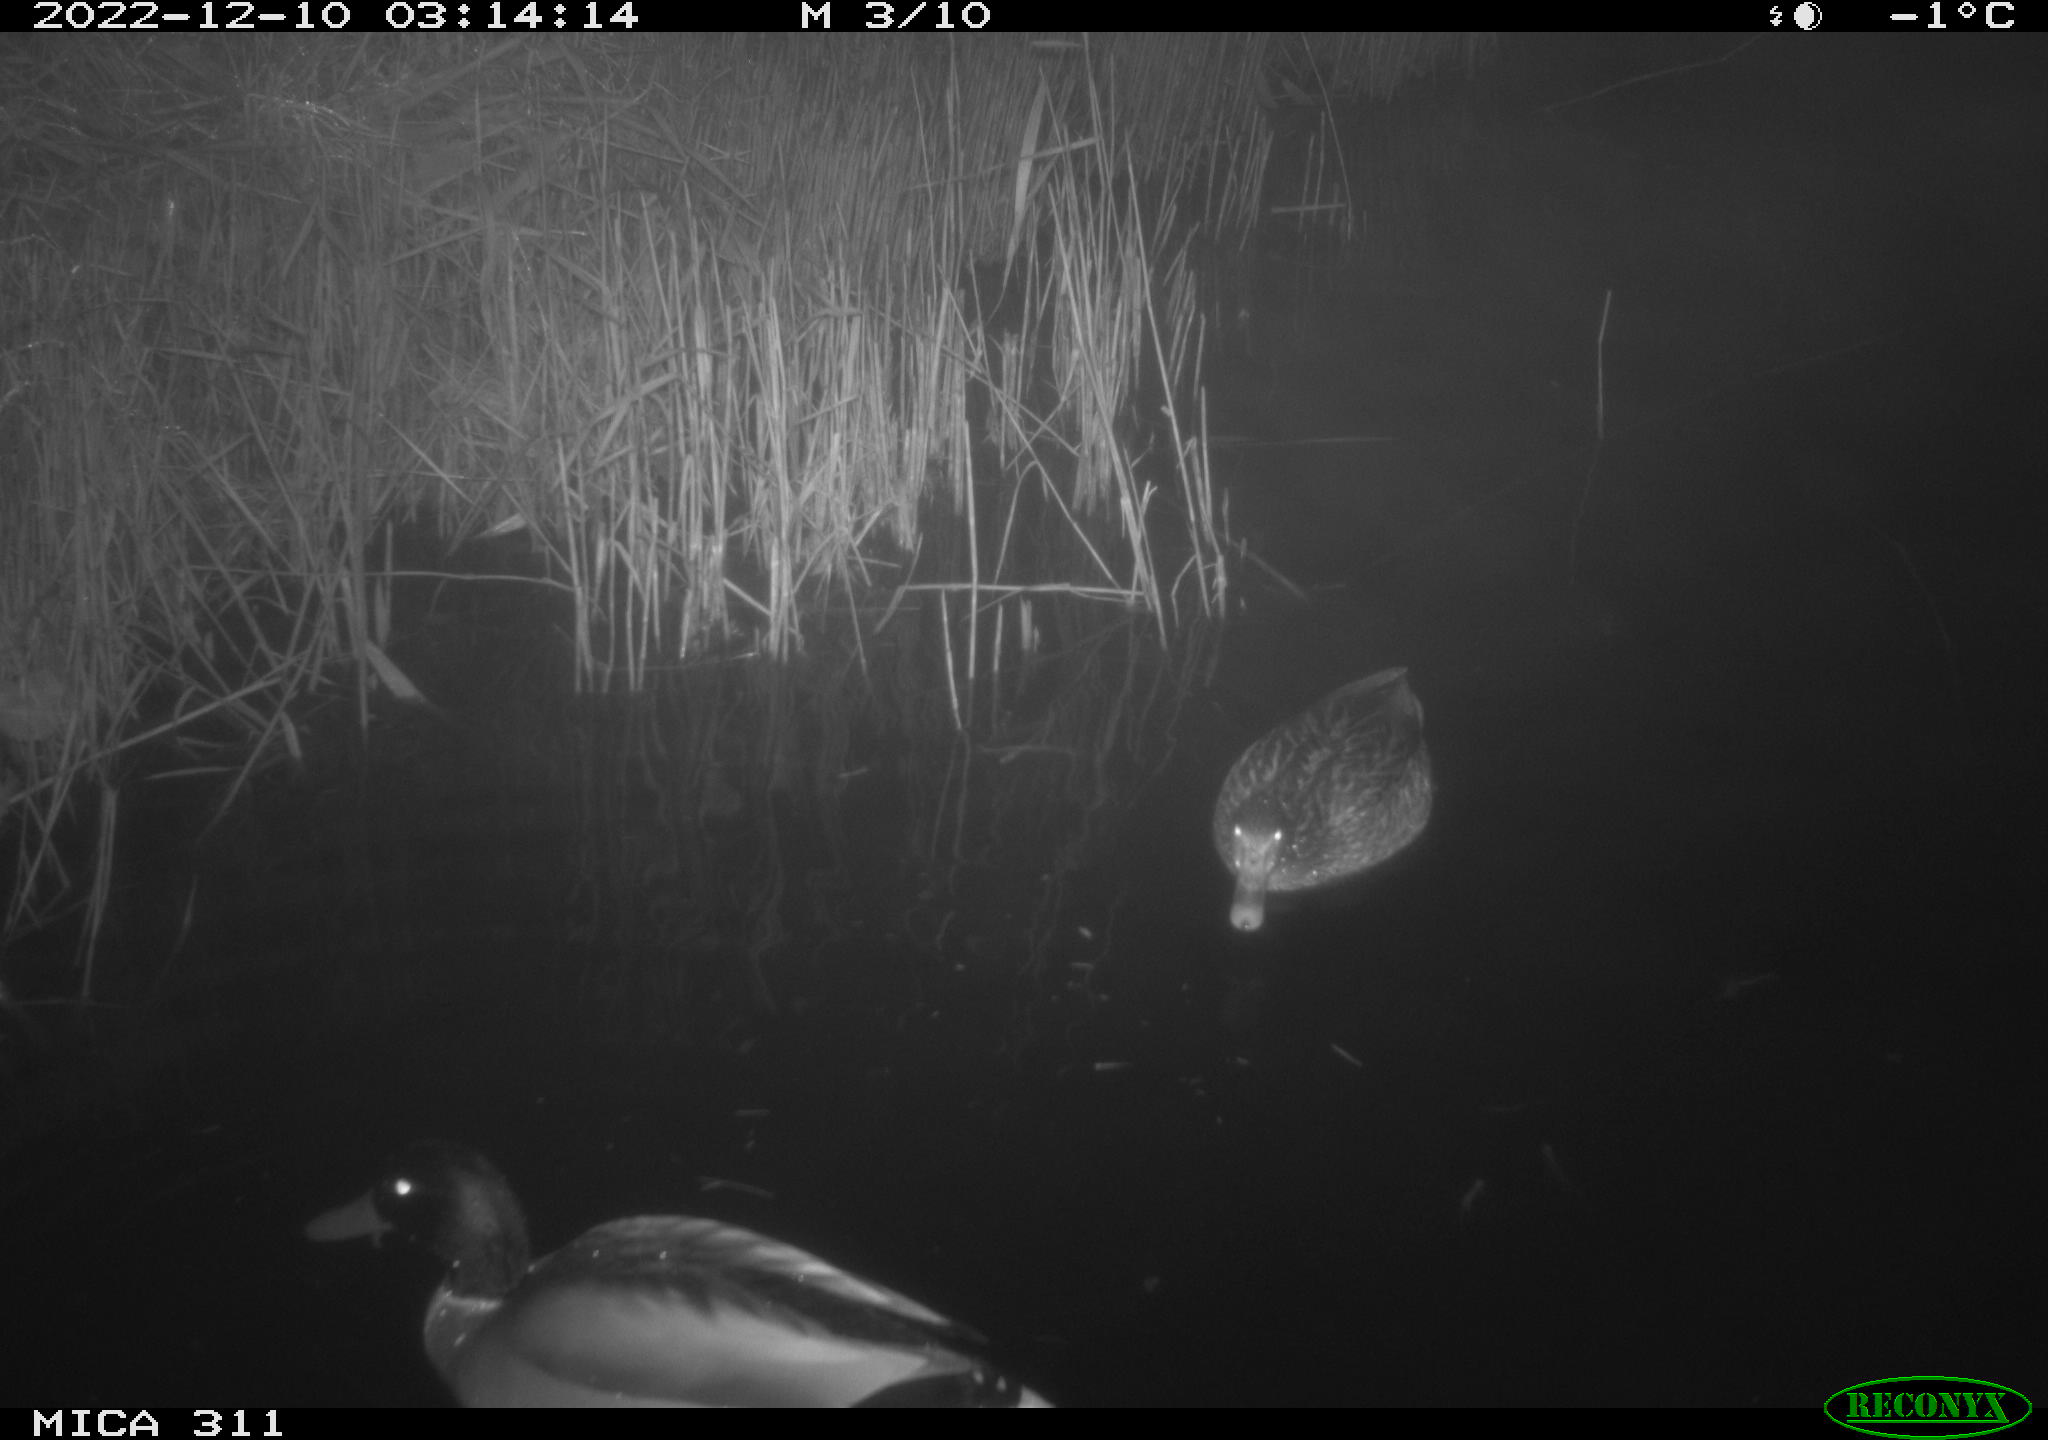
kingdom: Animalia
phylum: Chordata
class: Mammalia
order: Rodentia
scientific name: Rodentia
